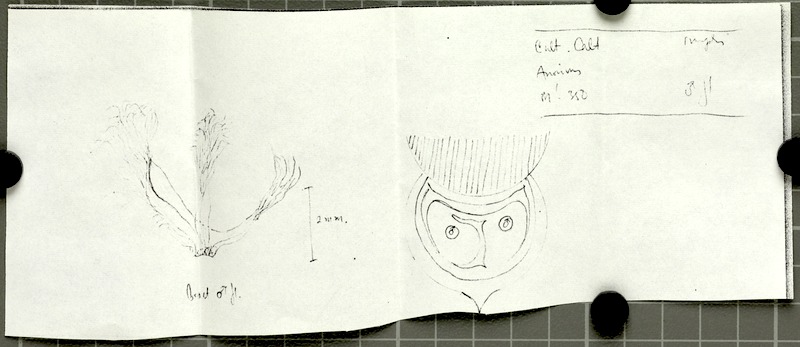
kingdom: Plantae
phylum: Tracheophyta
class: Liliopsida
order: Arecales
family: Arecaceae
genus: Salacca
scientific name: Salacca wallichiana
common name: Rakum palm
